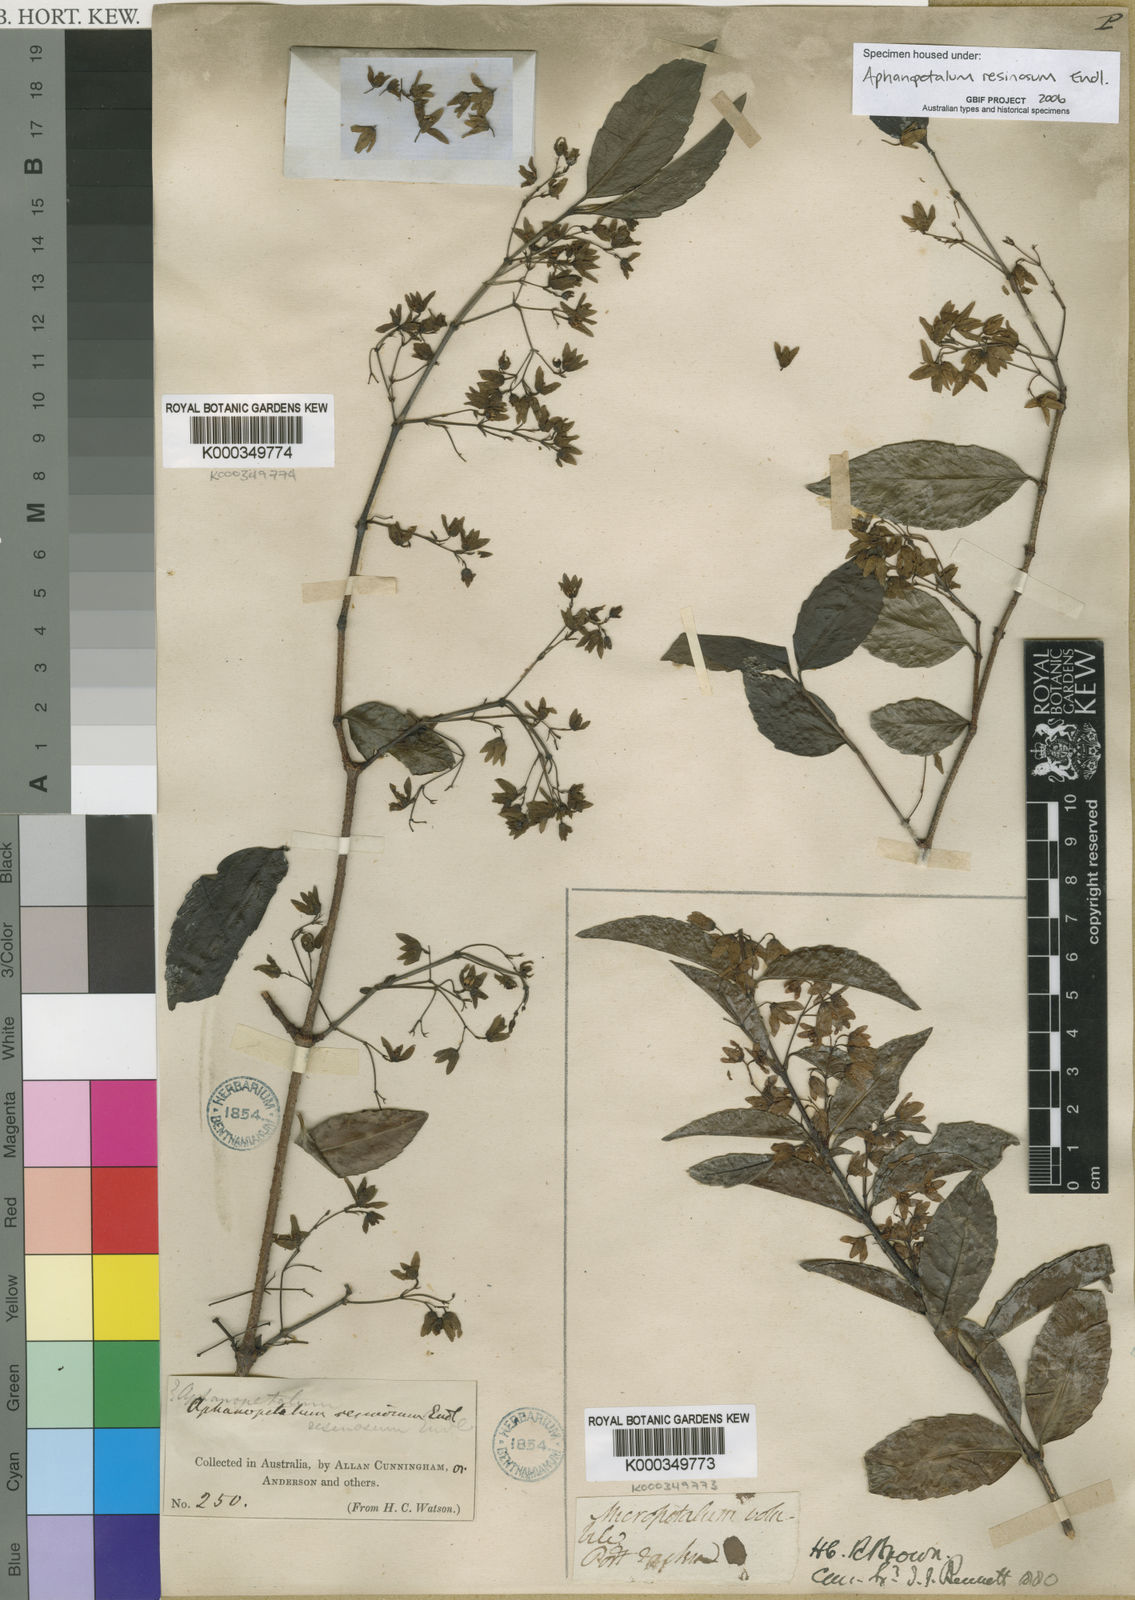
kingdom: Plantae
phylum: Tracheophyta
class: Magnoliopsida
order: Saxifragales
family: Aphanopetalaceae
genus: Aphanopetalum
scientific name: Aphanopetalum resinosum
